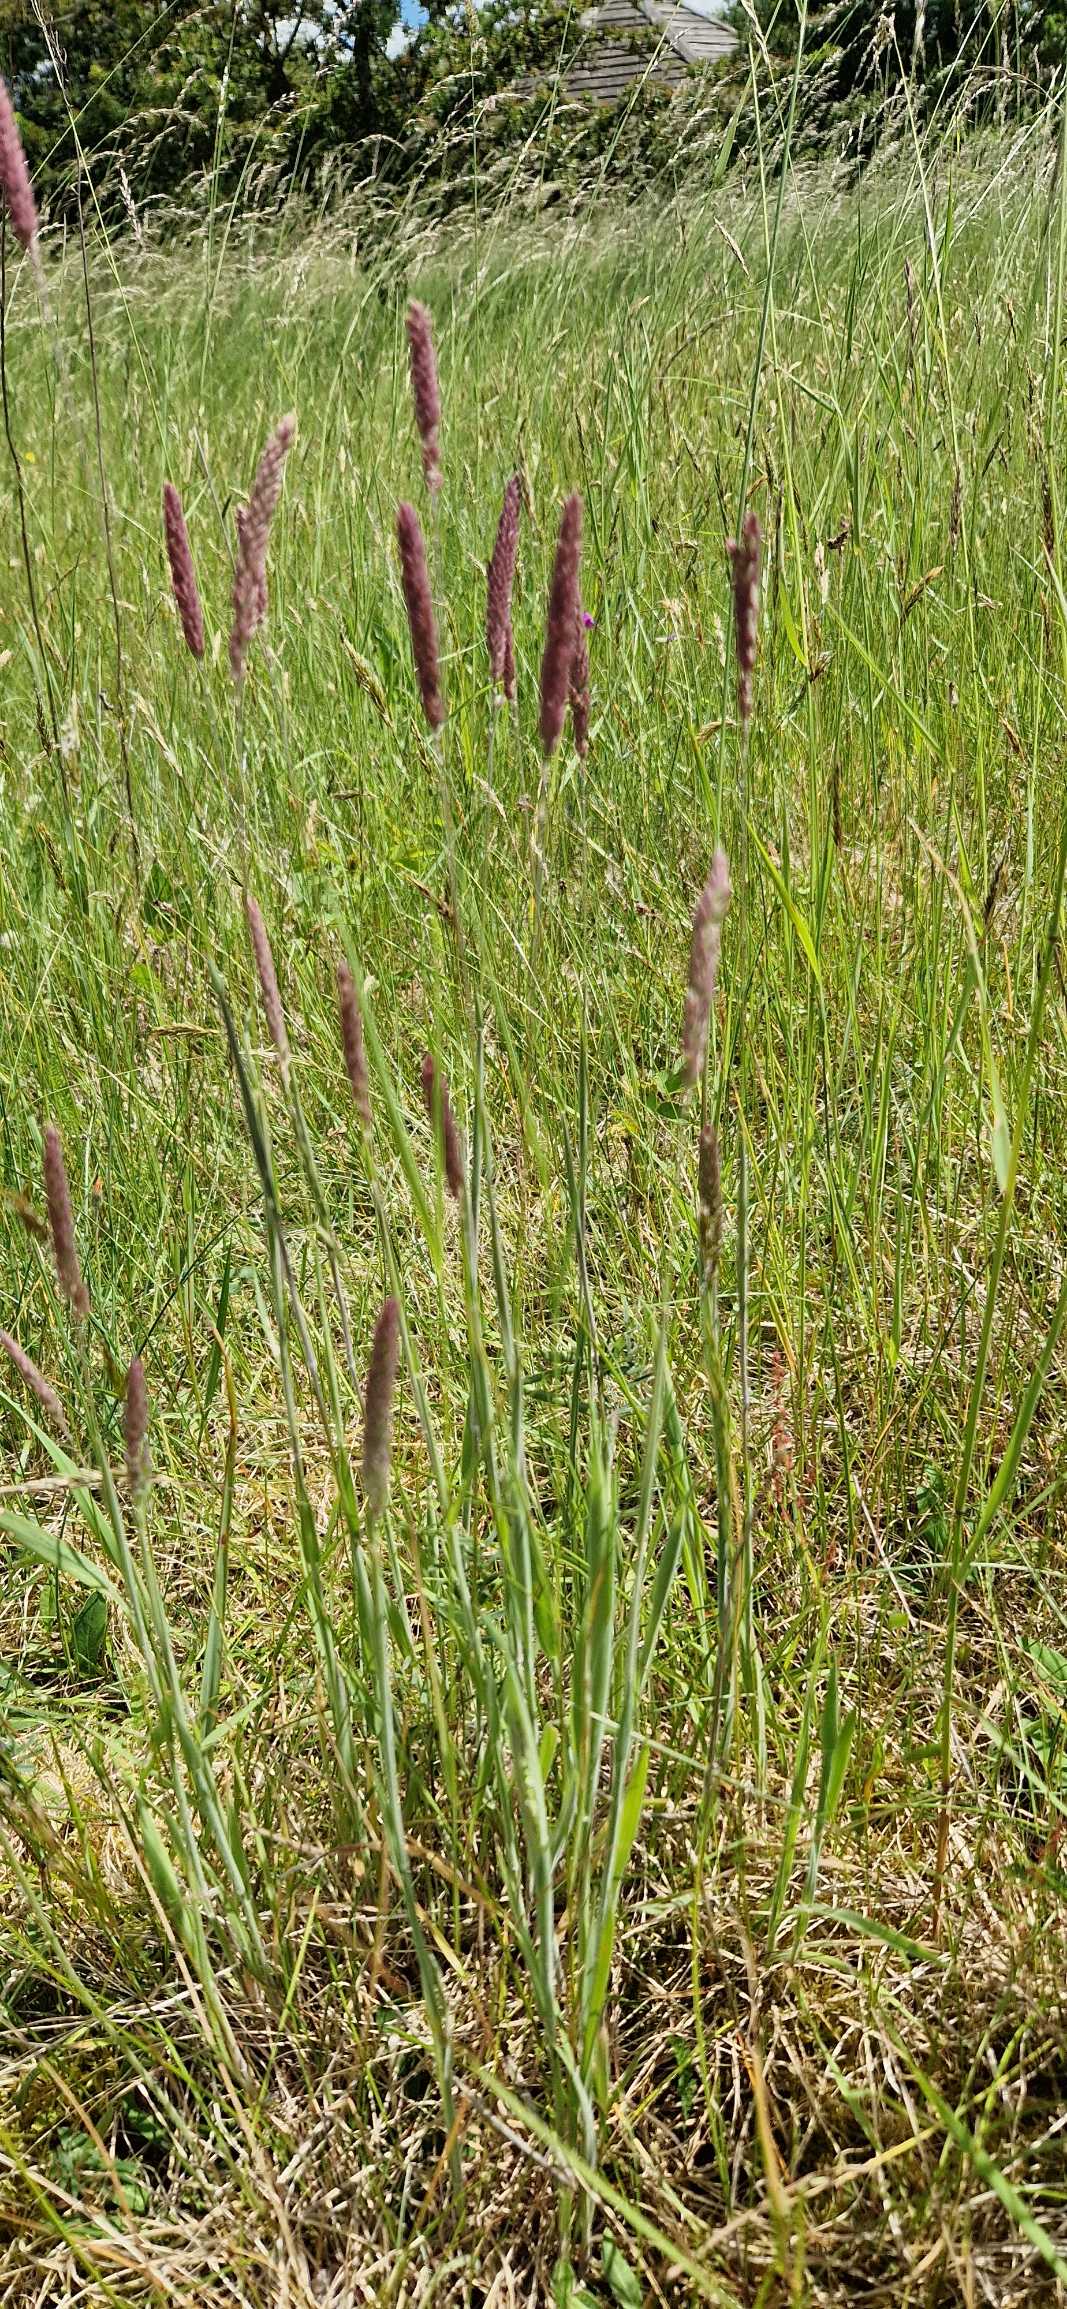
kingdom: Plantae
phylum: Tracheophyta
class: Liliopsida
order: Poales
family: Poaceae
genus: Holcus
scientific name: Holcus lanatus
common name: Fløjlsgræs
